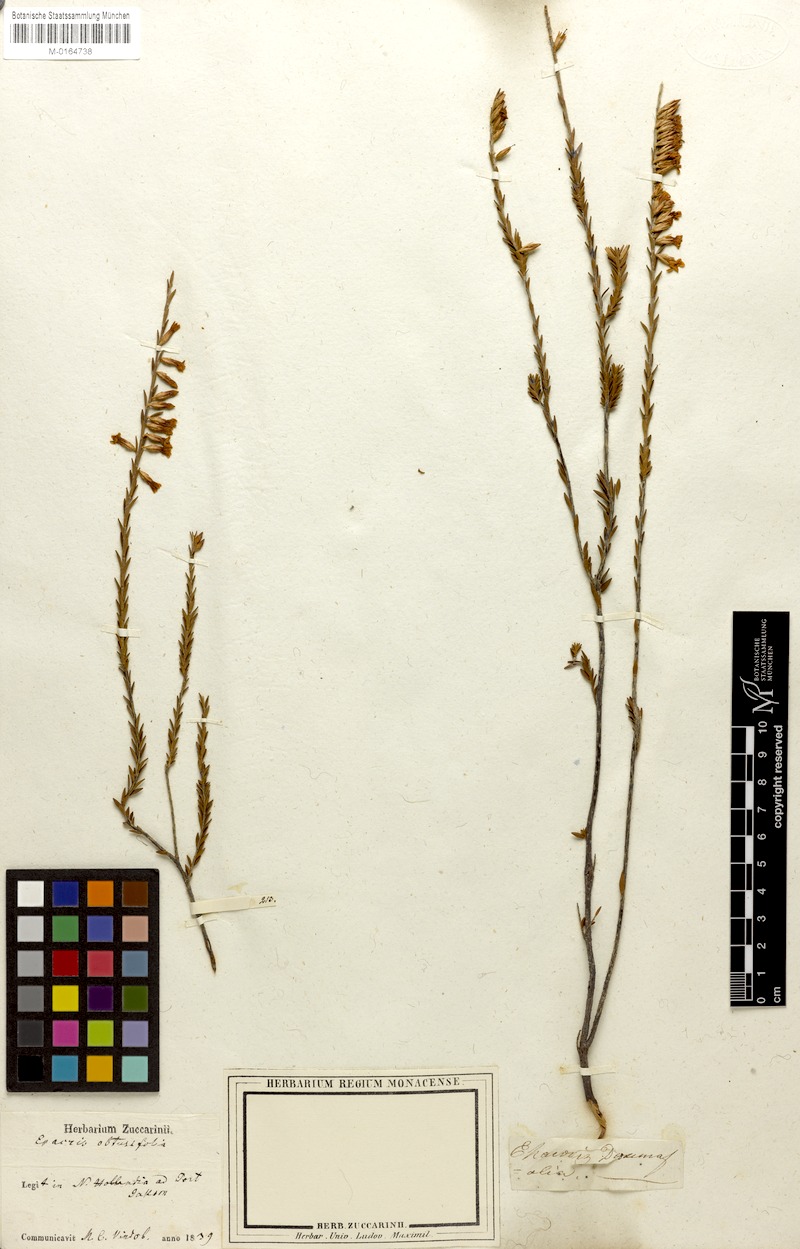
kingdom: Plantae
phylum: Tracheophyta
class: Magnoliopsida
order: Ericales
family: Ericaceae
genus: Epacris
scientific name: Epacris myrtifolia
